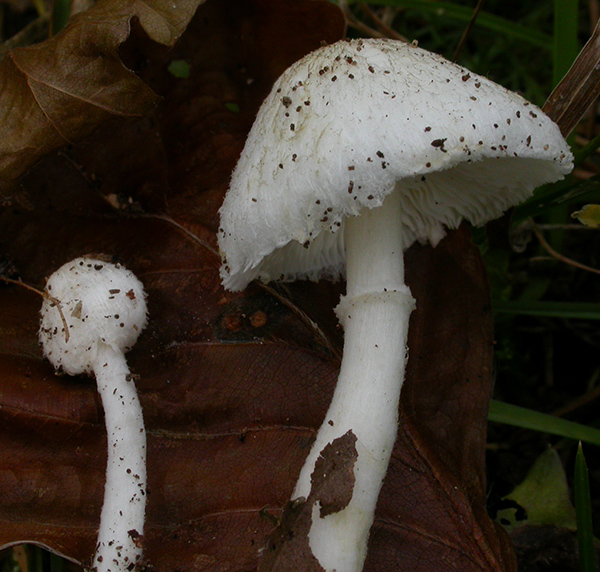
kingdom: Fungi
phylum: Basidiomycota
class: Agaricomycetes
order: Agaricales
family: Agaricaceae
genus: Leucoagaricus
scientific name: Leucoagaricus sericifer
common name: hvid silkehat
